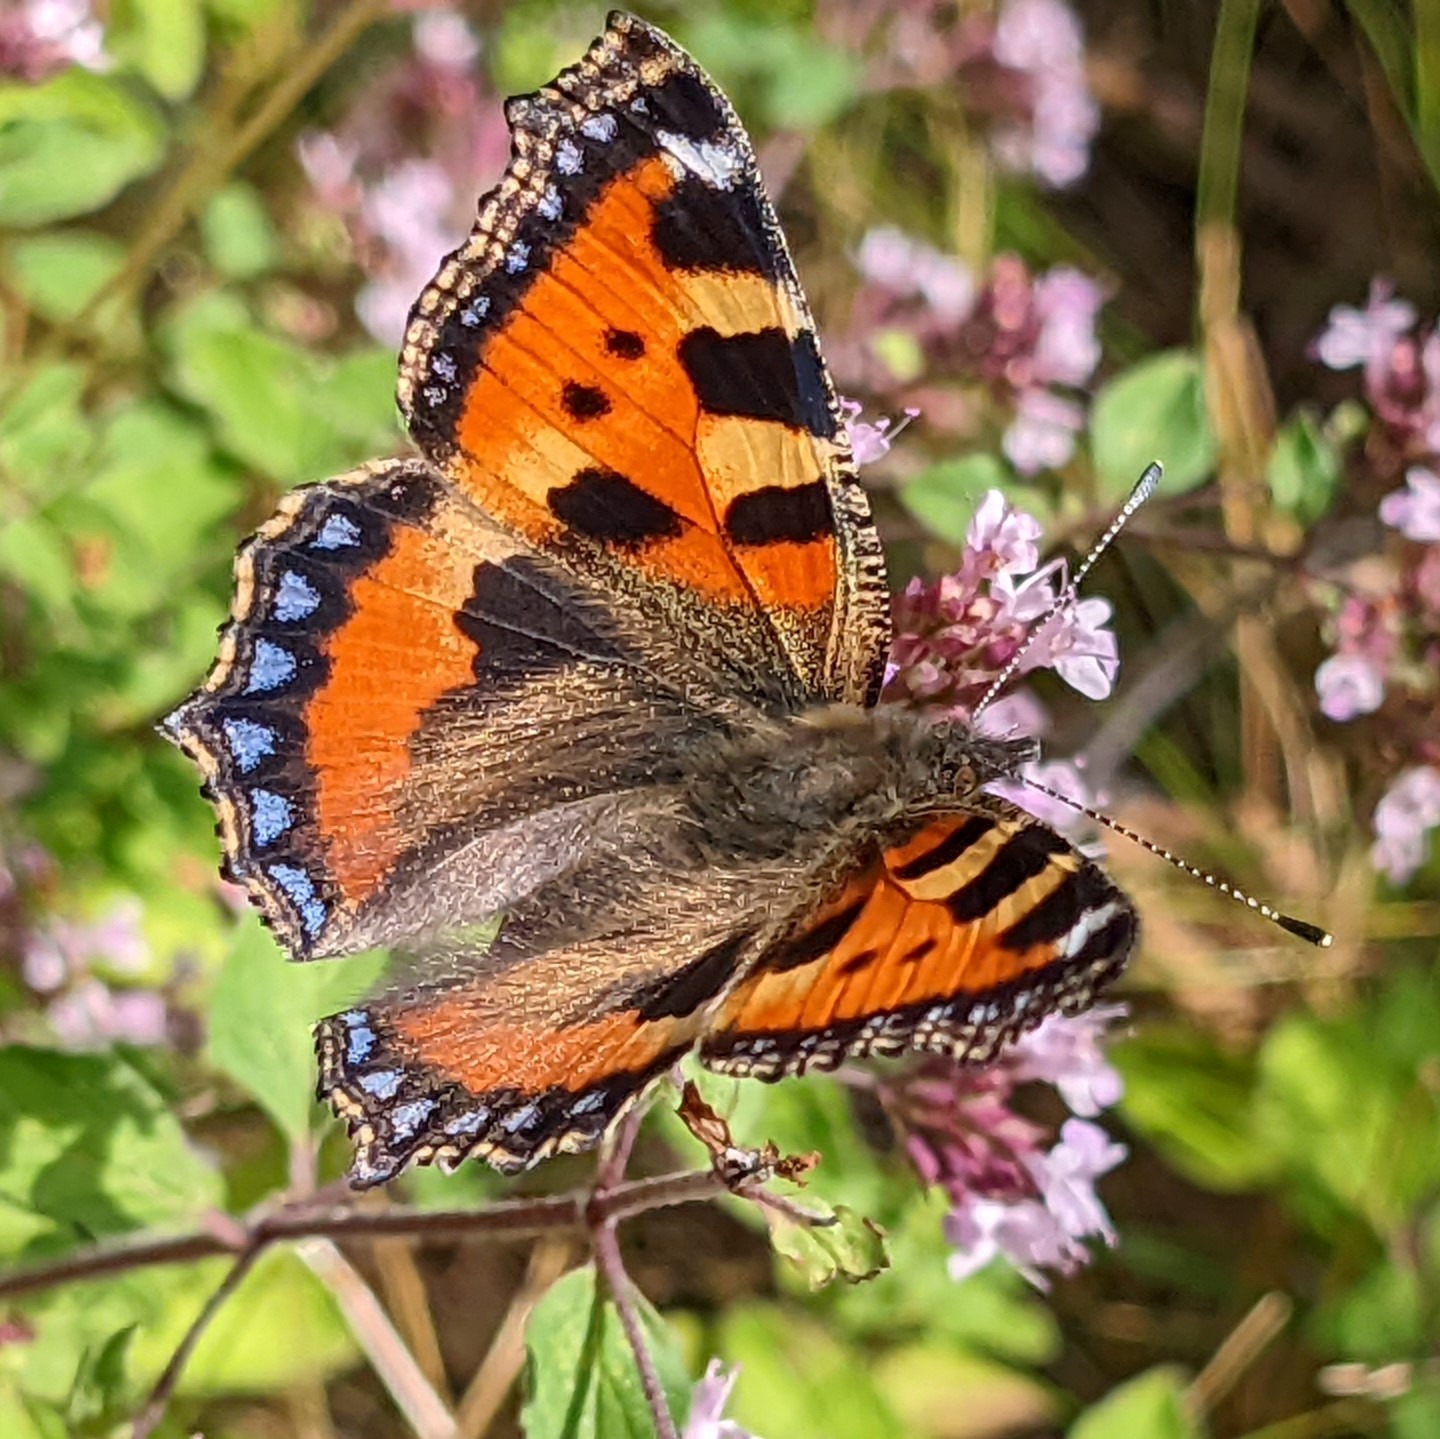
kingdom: Animalia
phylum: Arthropoda
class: Insecta
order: Lepidoptera
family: Nymphalidae
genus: Aglais
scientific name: Aglais urticae
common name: Nældens takvinge
